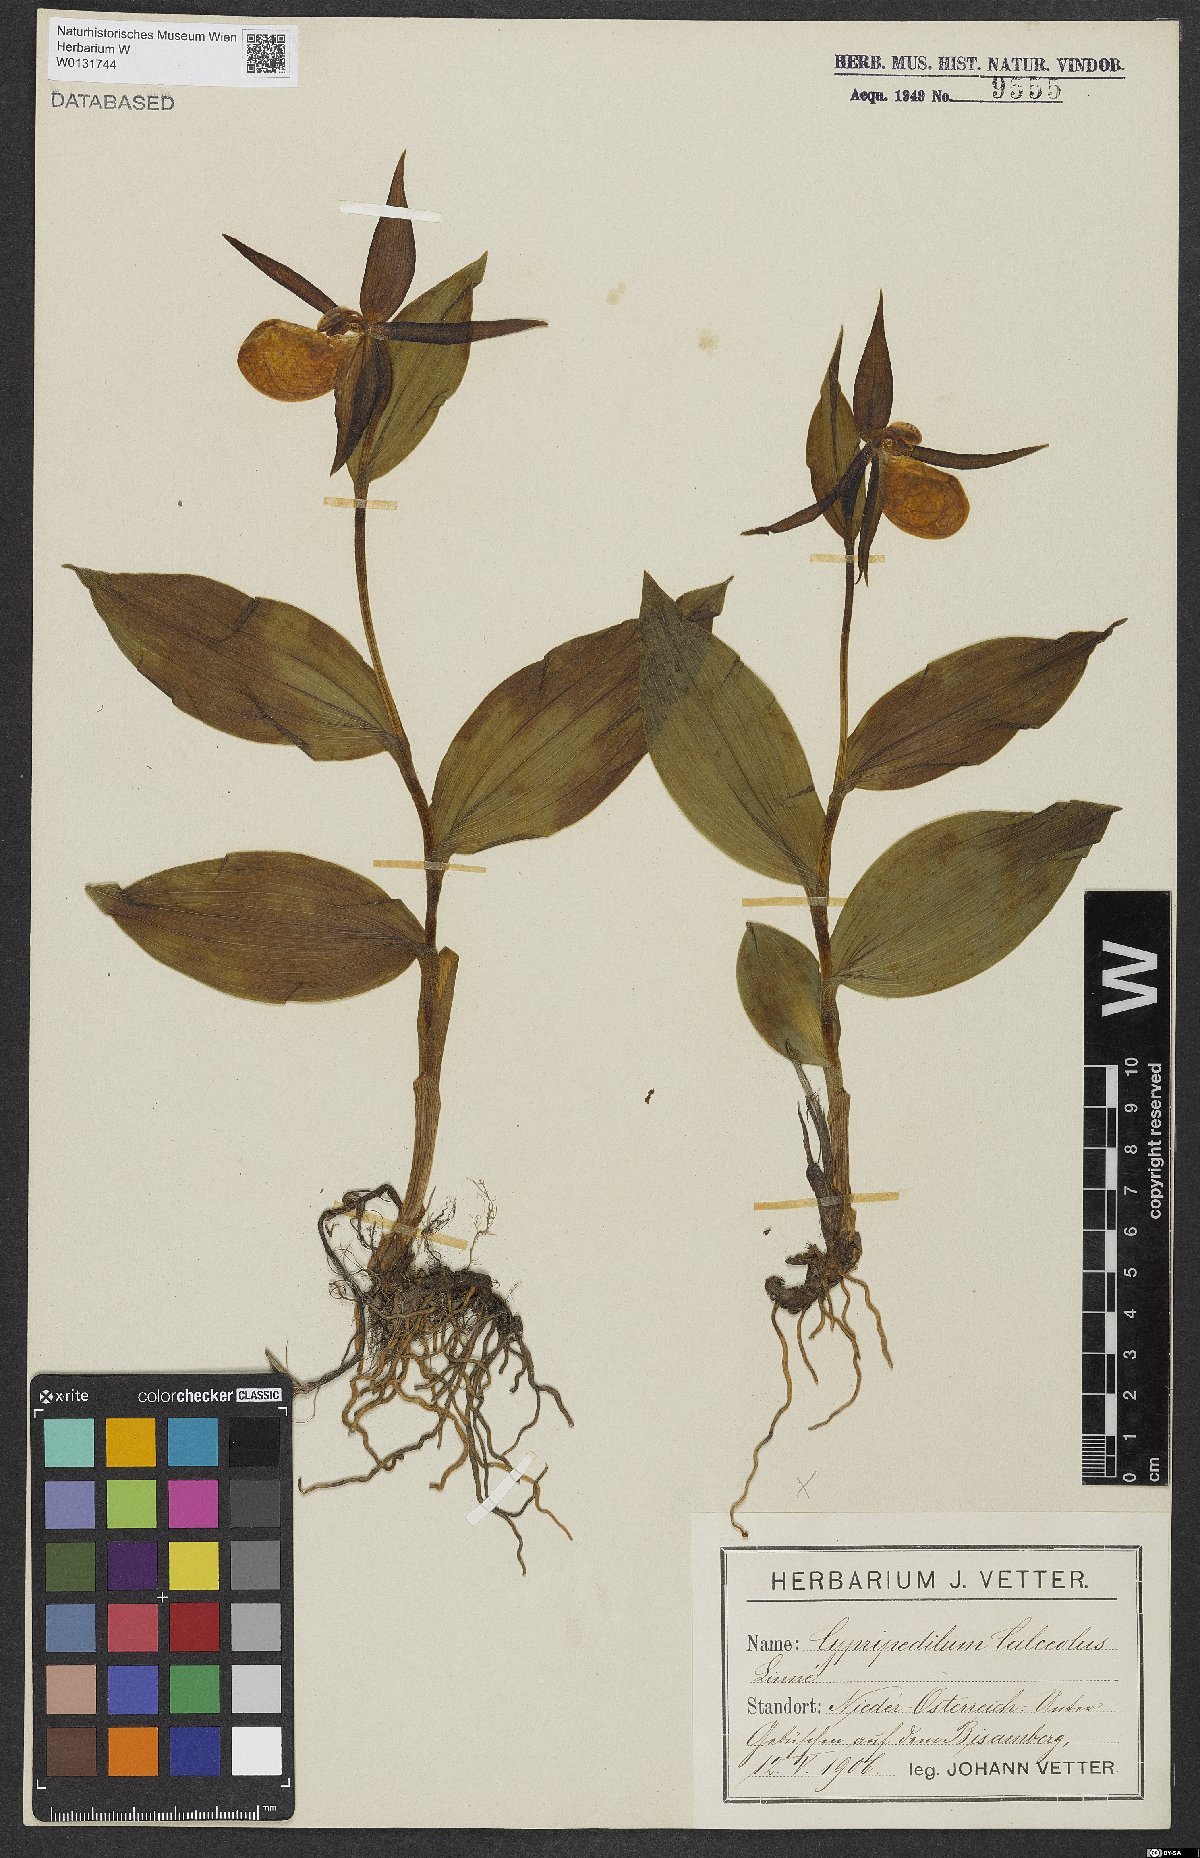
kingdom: Plantae
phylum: Tracheophyta
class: Liliopsida
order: Asparagales
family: Orchidaceae
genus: Cypripedium
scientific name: Cypripedium calceolus
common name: Lady's-slipper
